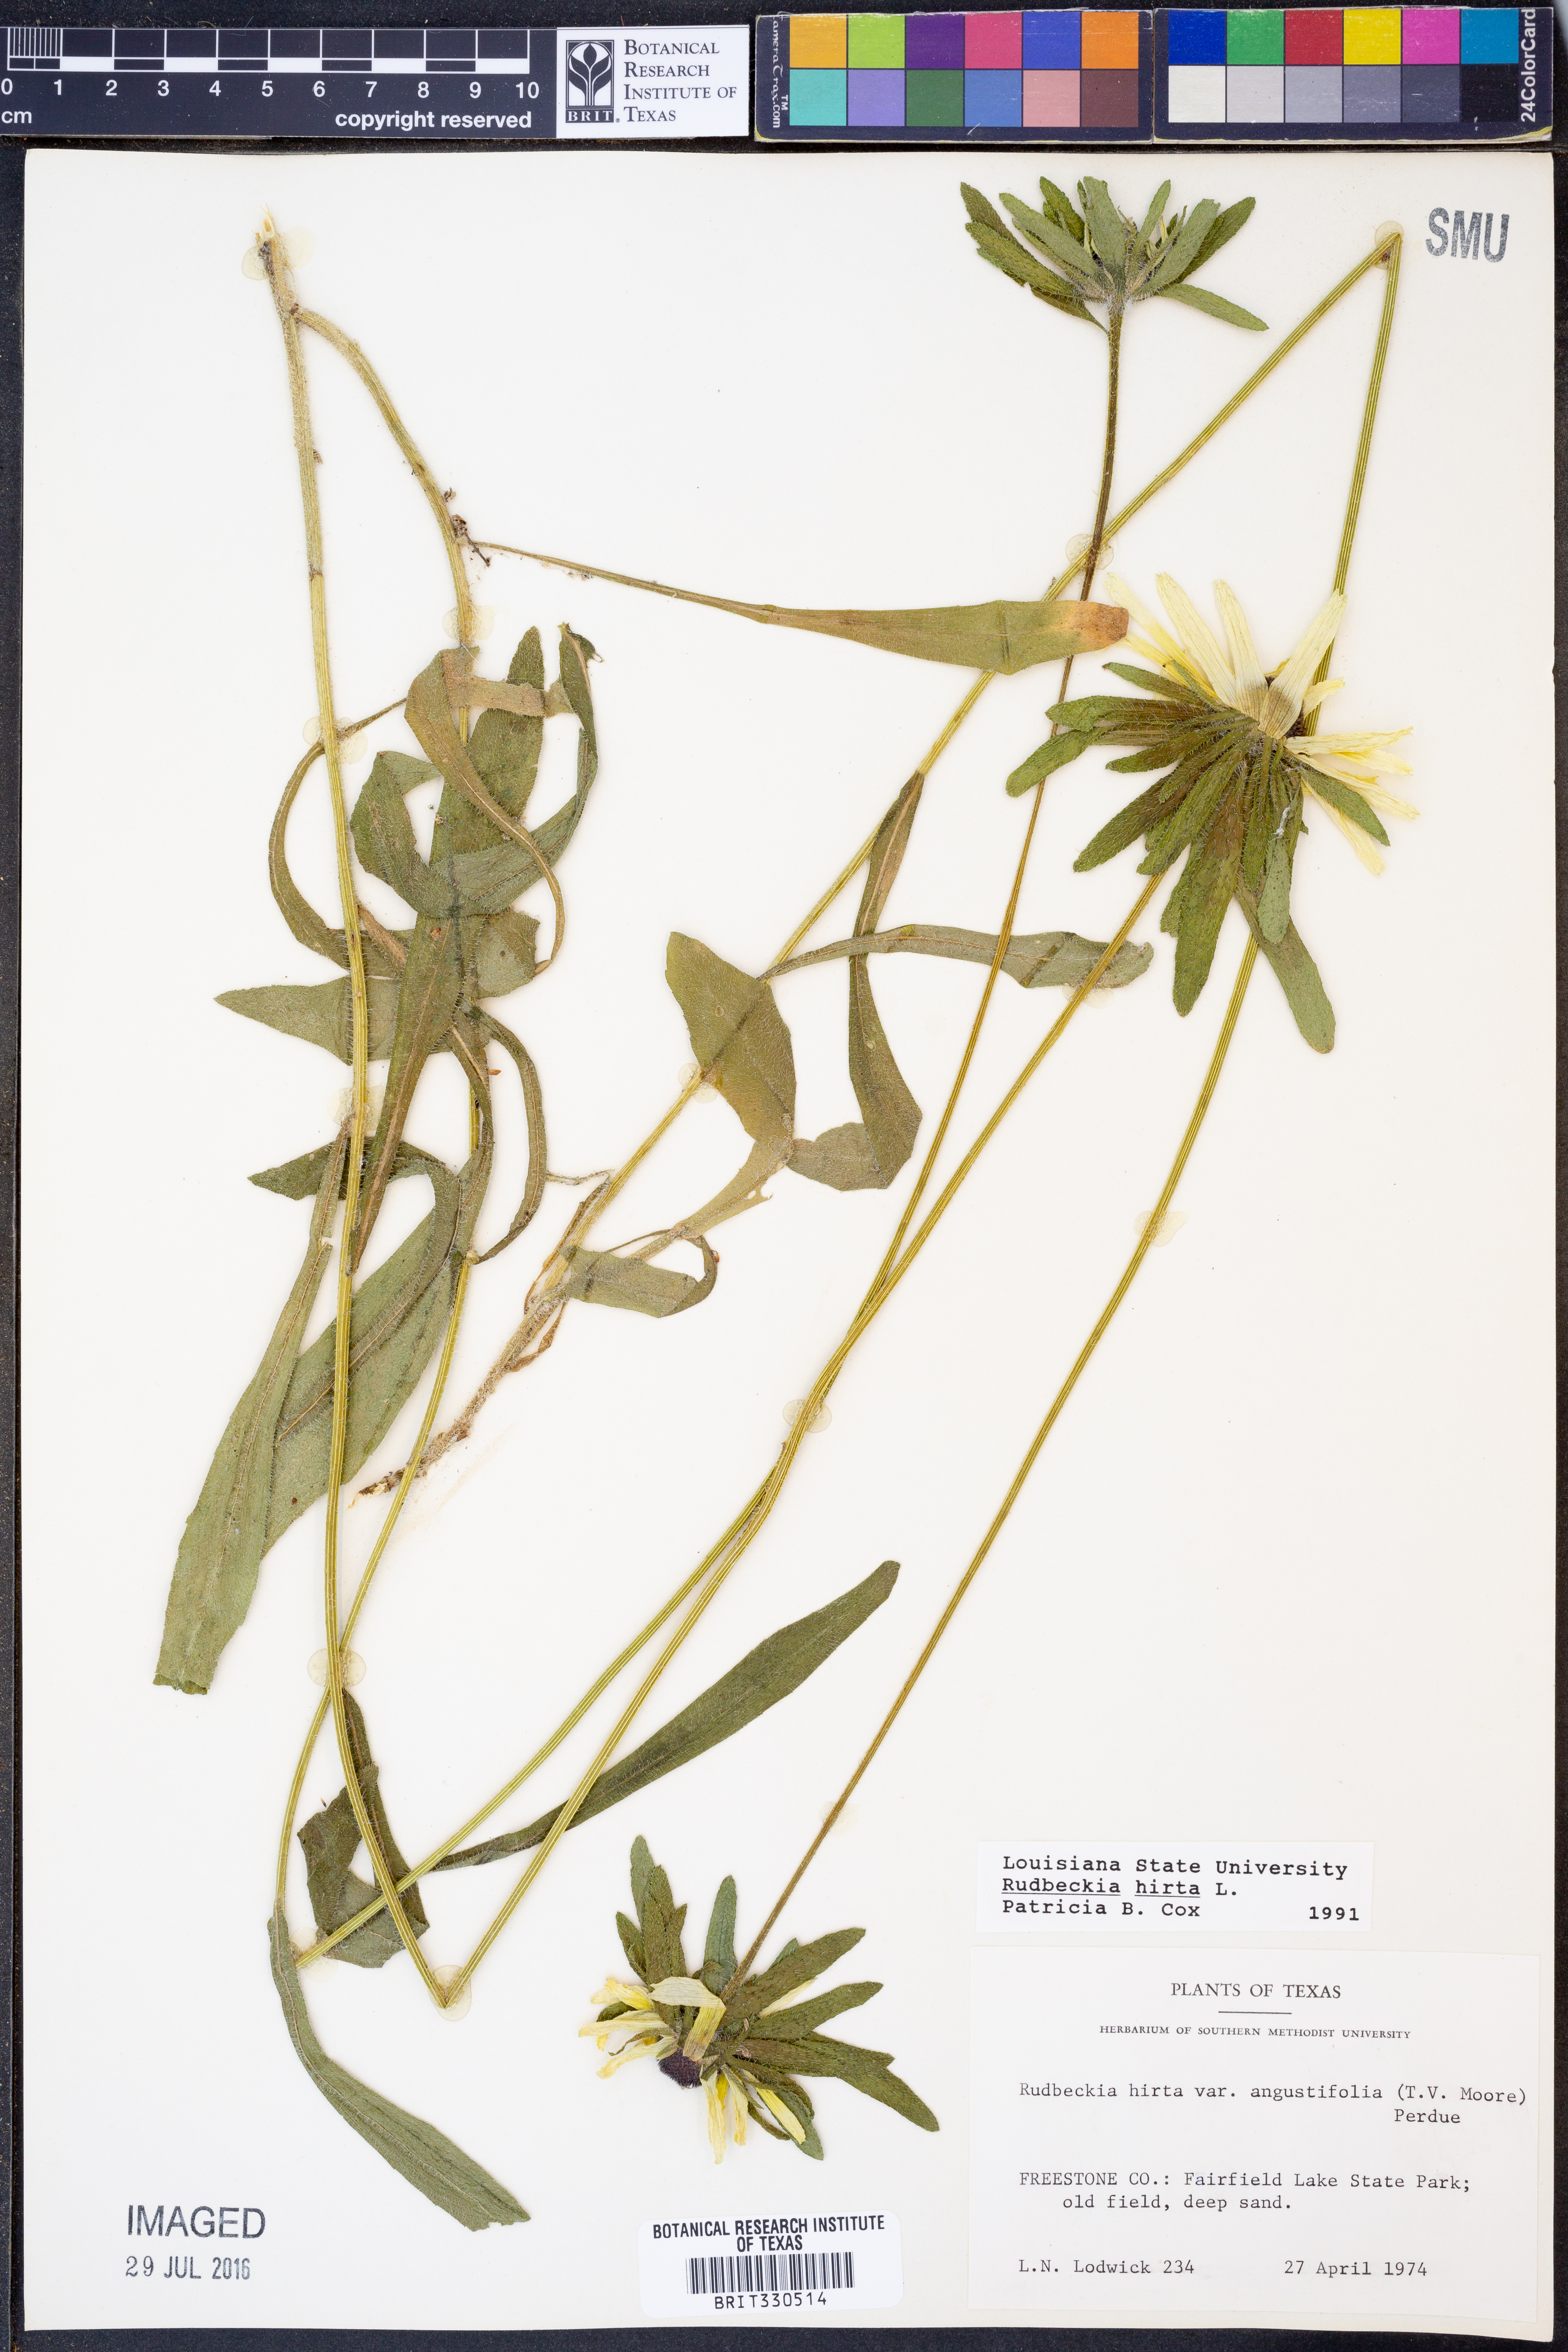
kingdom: Plantae
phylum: Tracheophyta
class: Magnoliopsida
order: Asterales
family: Asteraceae
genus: Rudbeckia
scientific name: Rudbeckia hirta
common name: Black-eyed-susan
